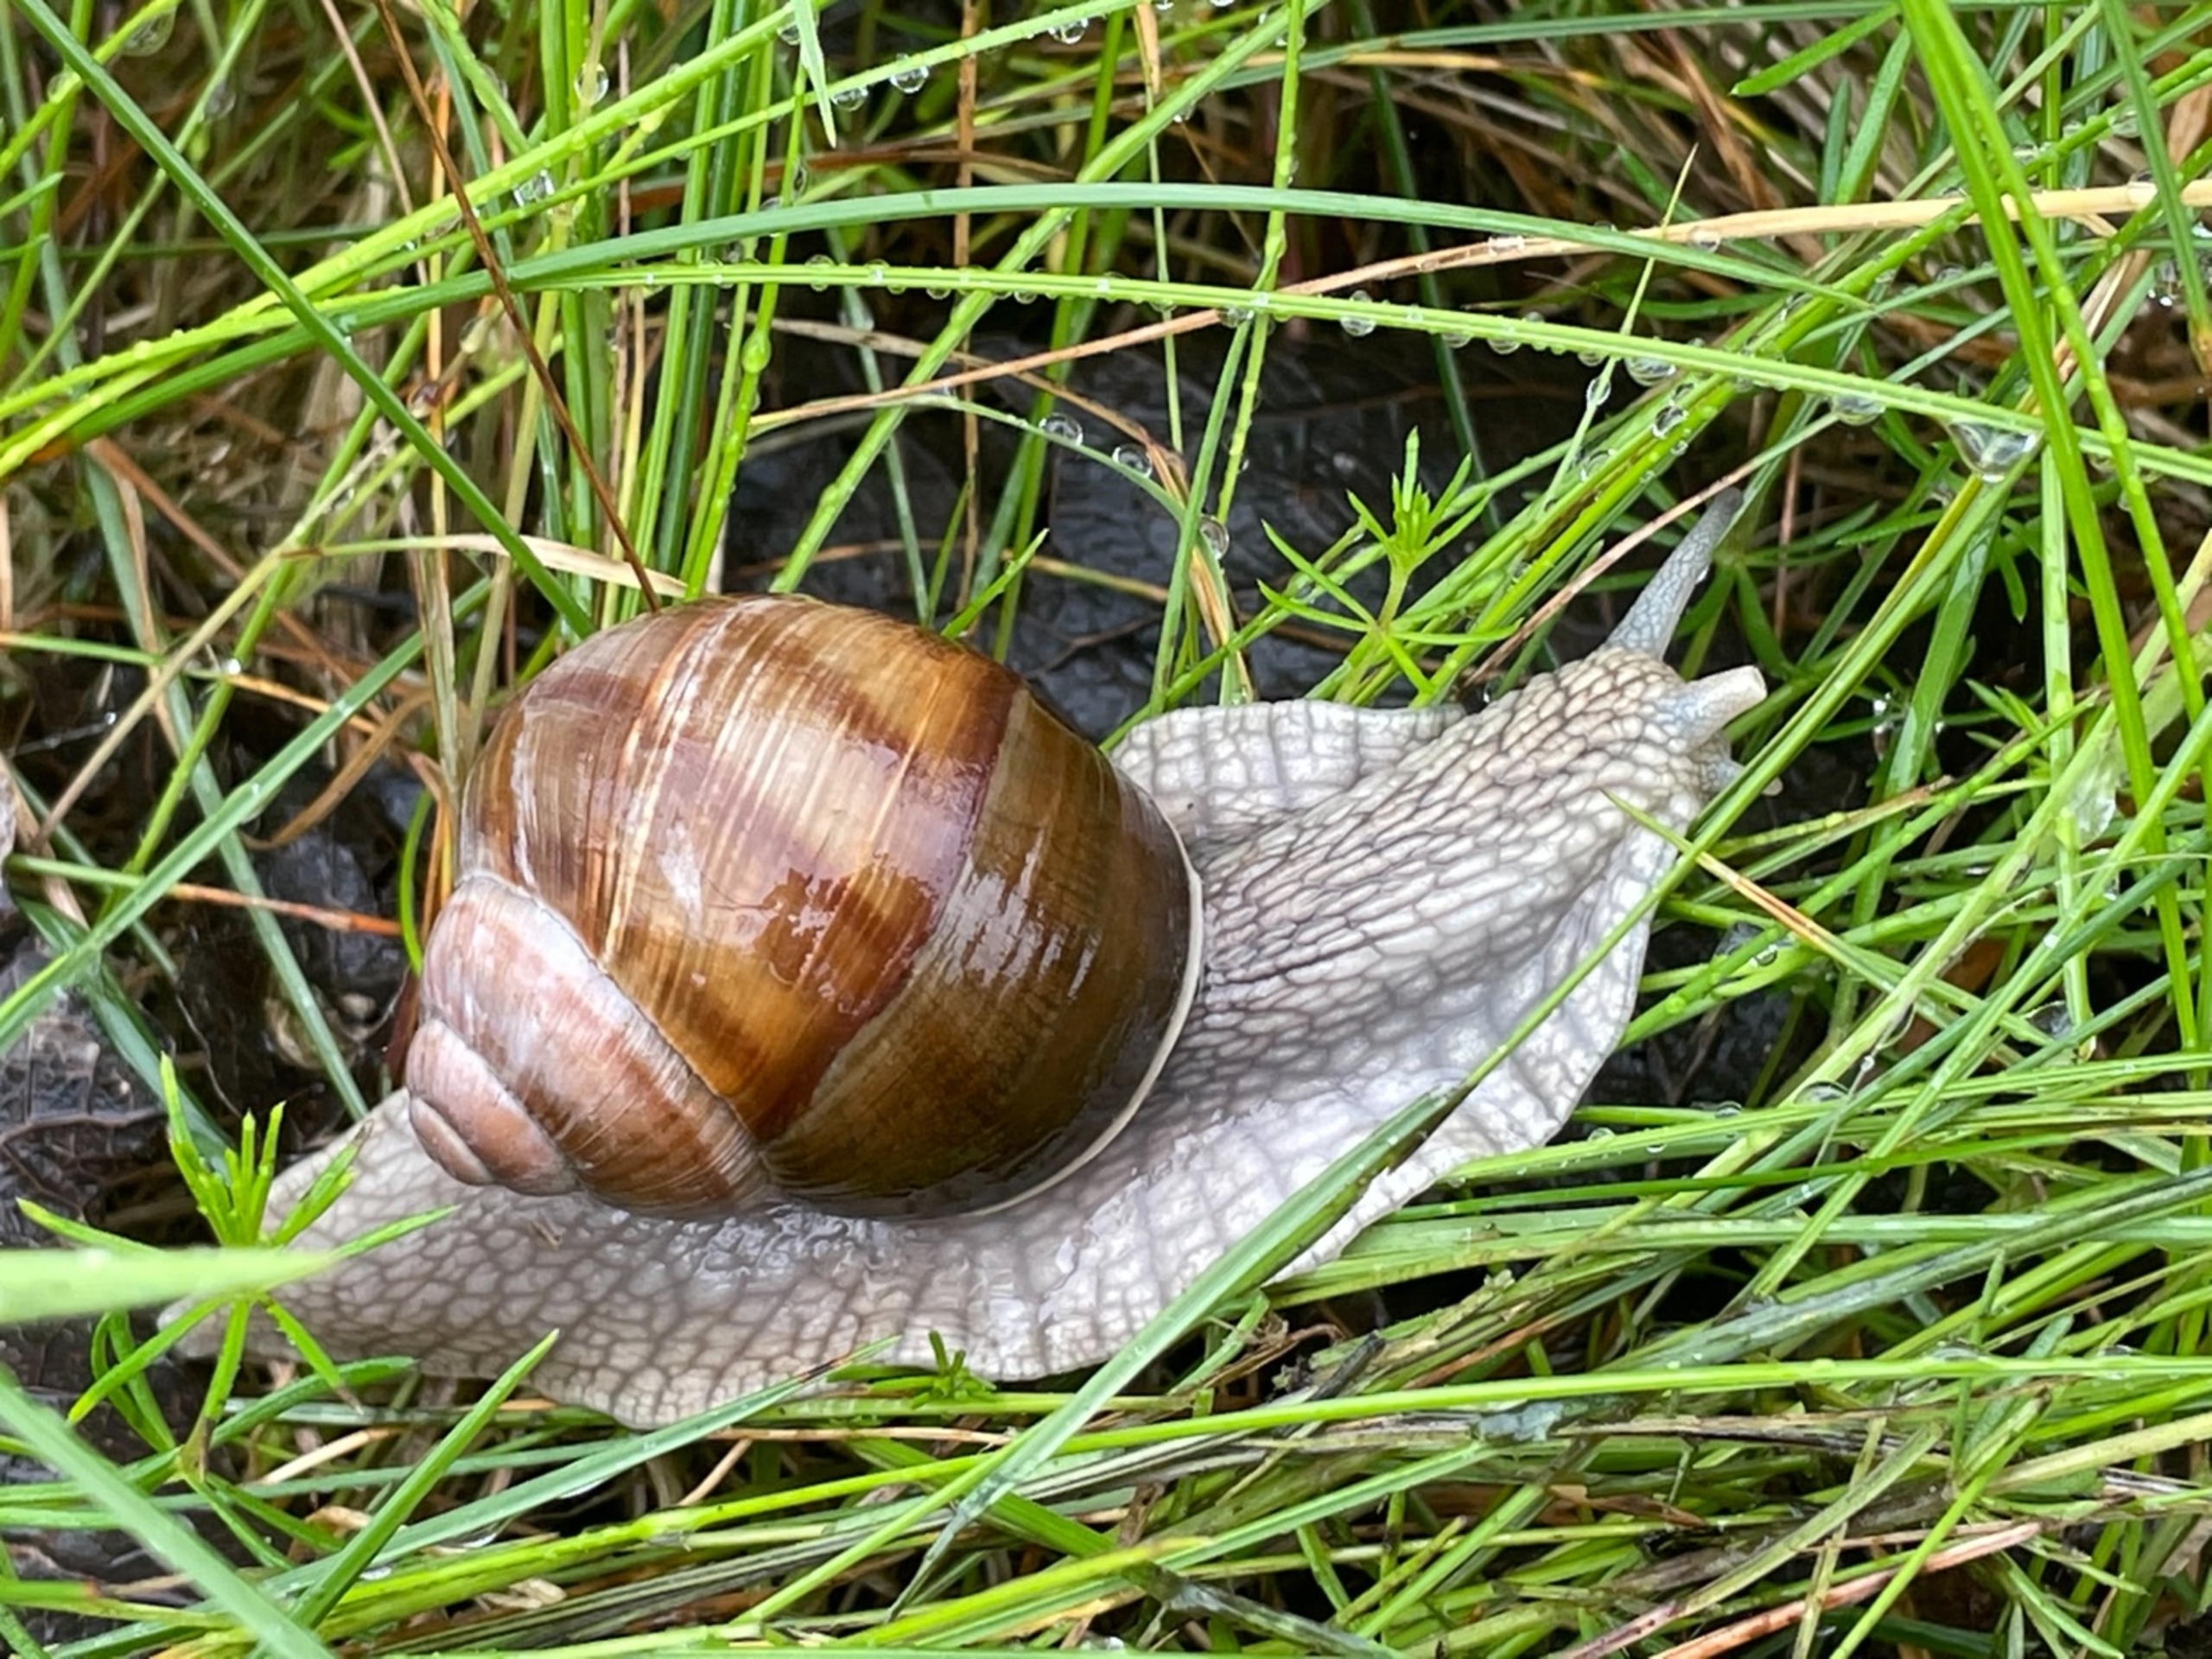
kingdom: Animalia
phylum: Mollusca
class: Gastropoda
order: Stylommatophora
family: Helicidae
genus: Helix
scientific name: Helix pomatia
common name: Vinbjergsnegl
